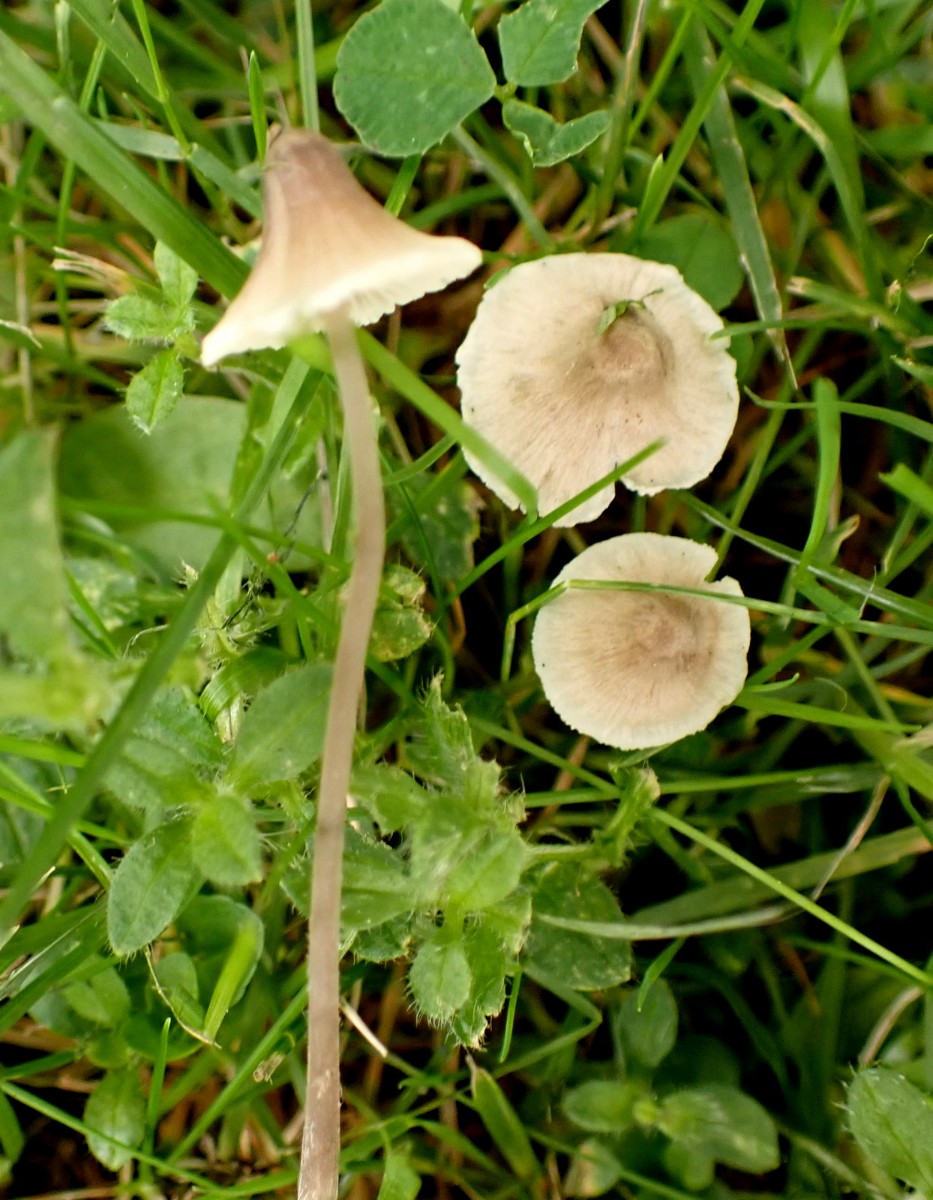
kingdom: Fungi
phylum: Basidiomycota
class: Agaricomycetes
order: Agaricales
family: Mycenaceae
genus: Mycena
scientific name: Mycena
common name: huesvamp
